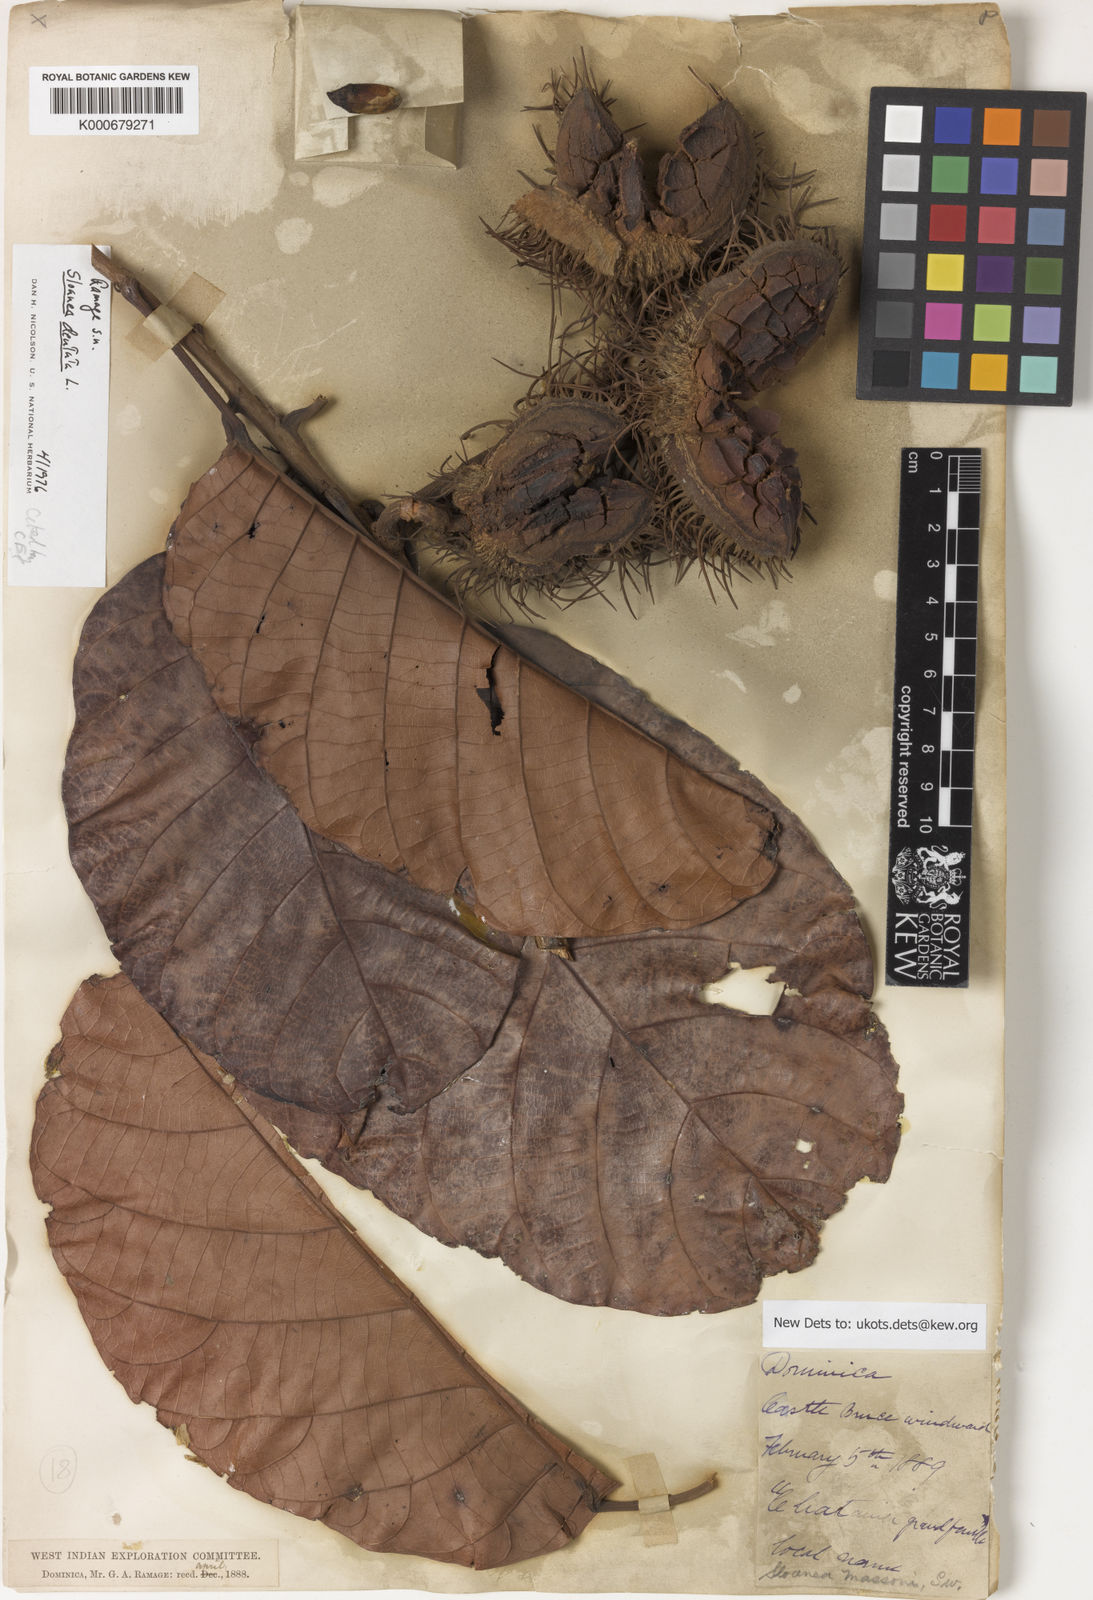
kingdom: Plantae
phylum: Tracheophyta
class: Magnoliopsida
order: Oxalidales
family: Elaeocarpaceae
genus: Sloanea
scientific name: Sloanea dentata
